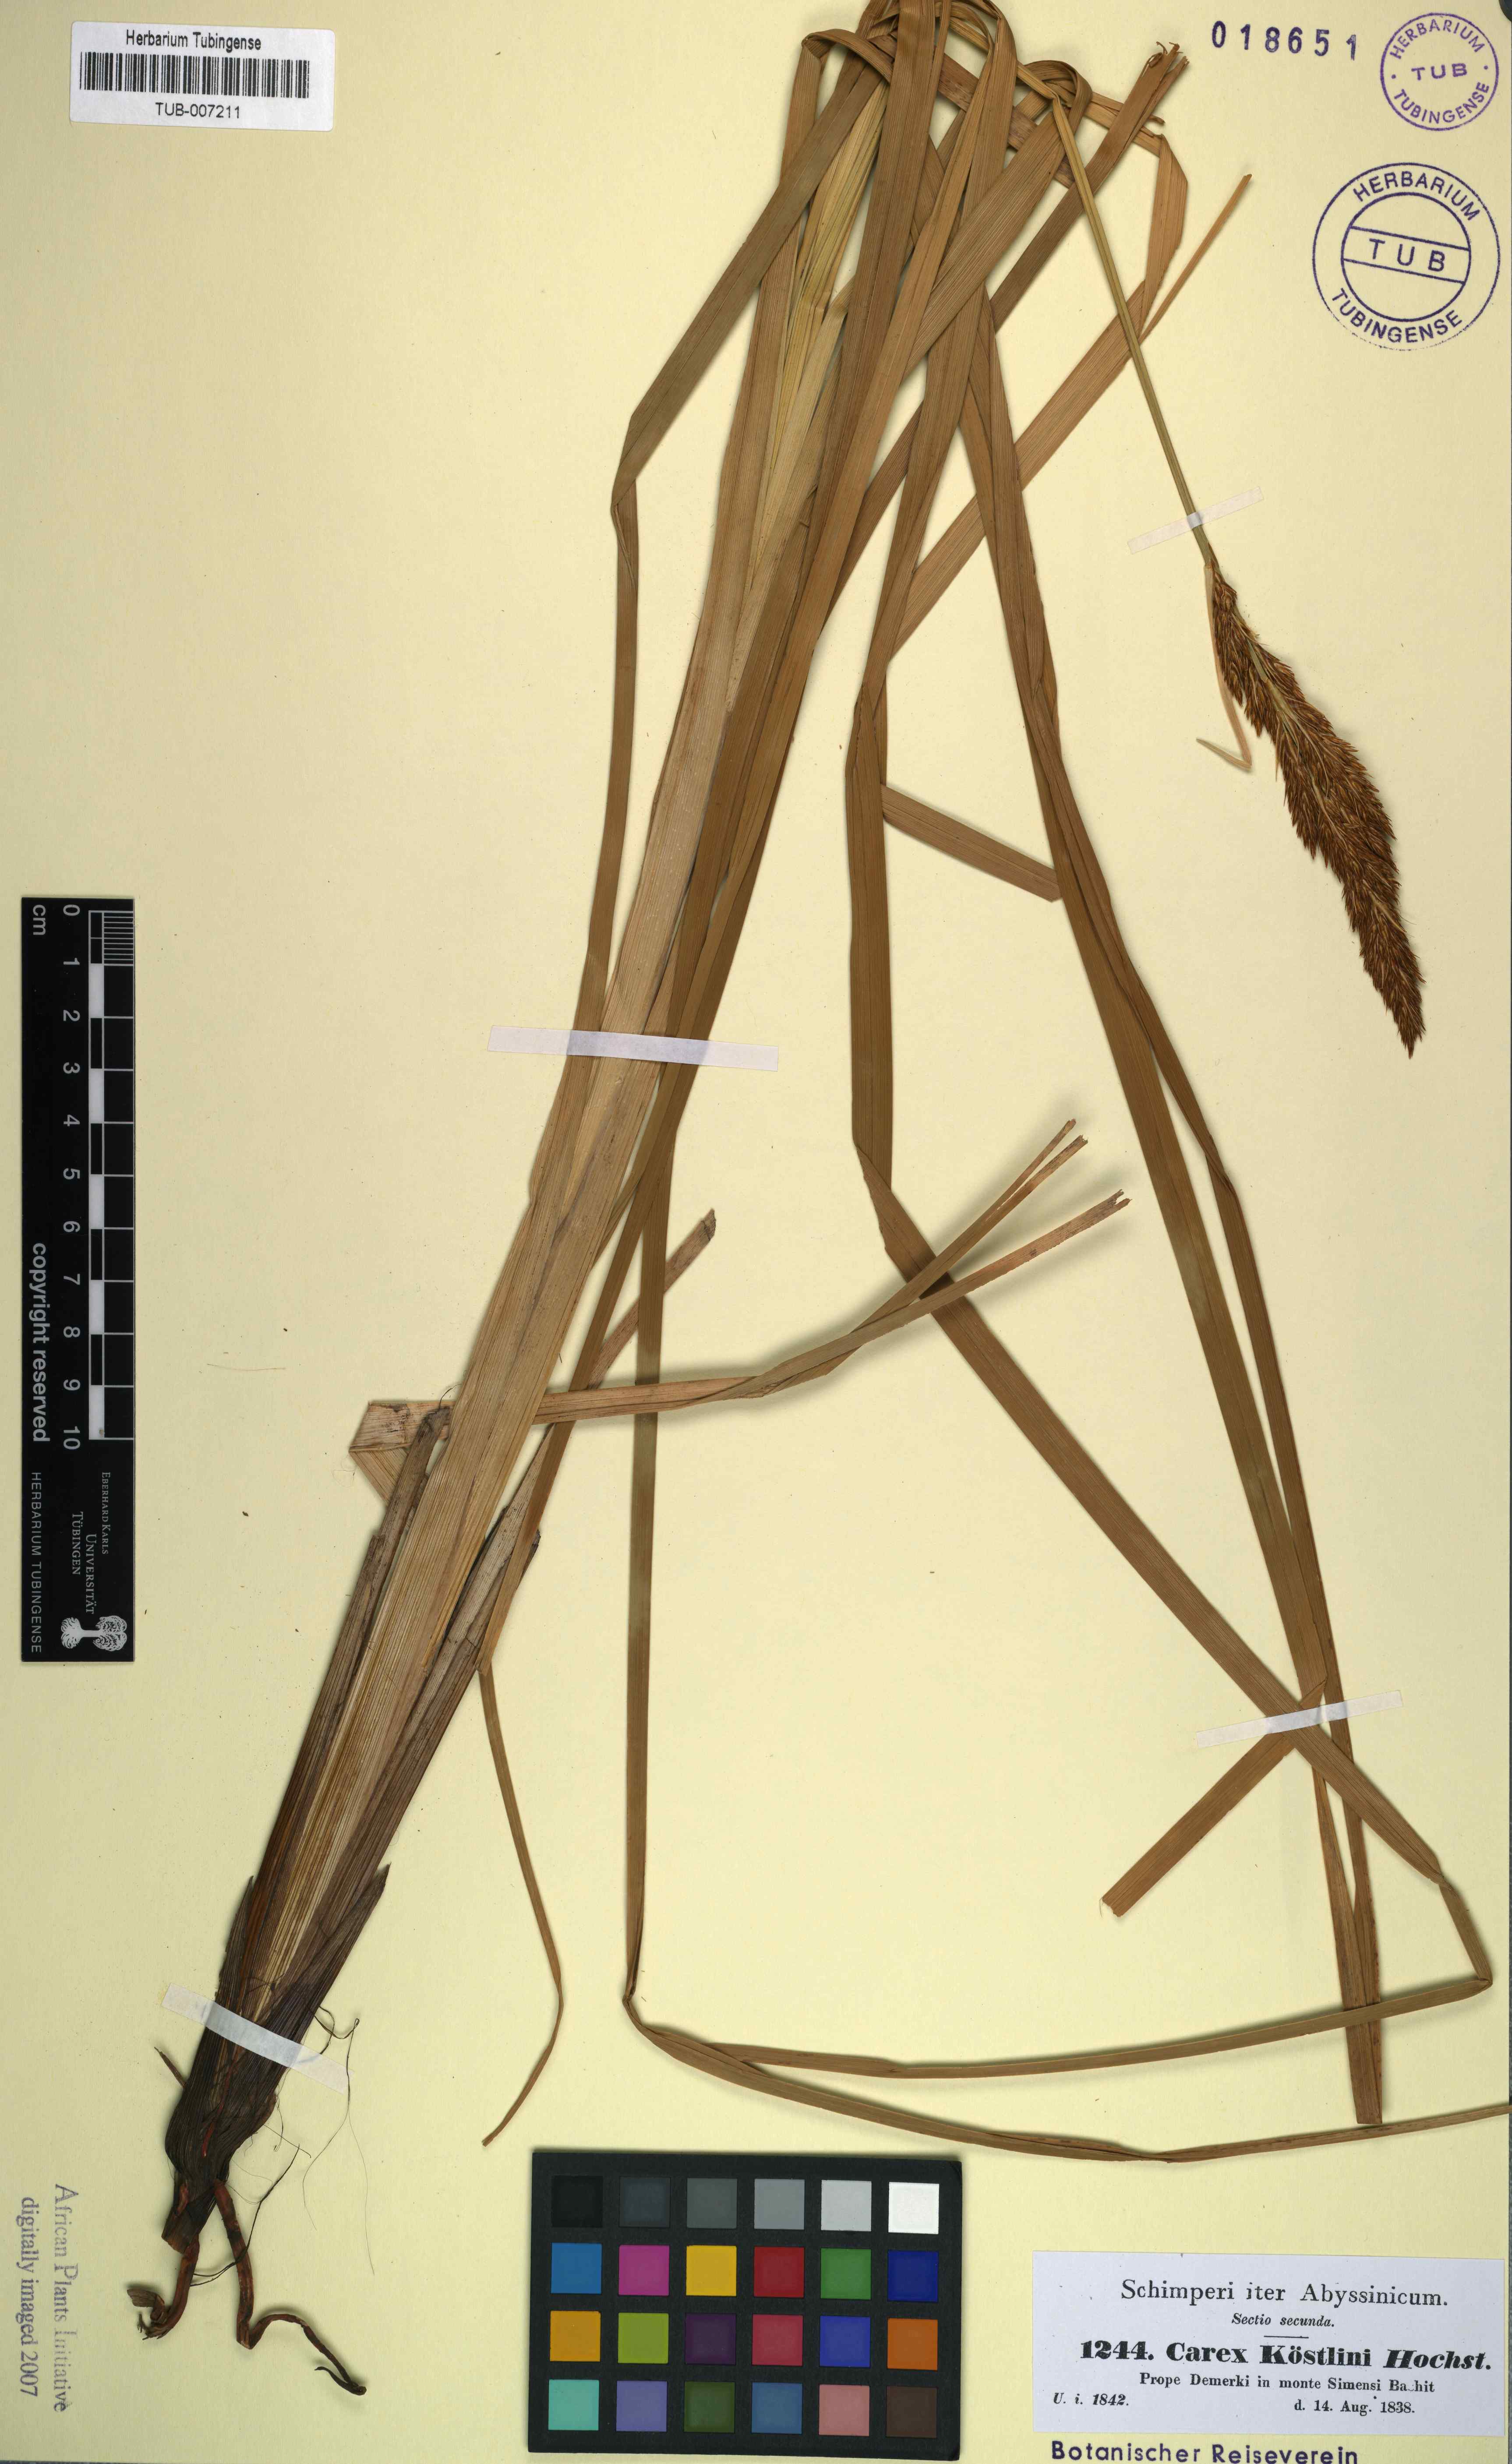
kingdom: Plantae
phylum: Tracheophyta
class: Liliopsida
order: Poales
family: Cyperaceae
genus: Carex
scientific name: Carex koestlinii
